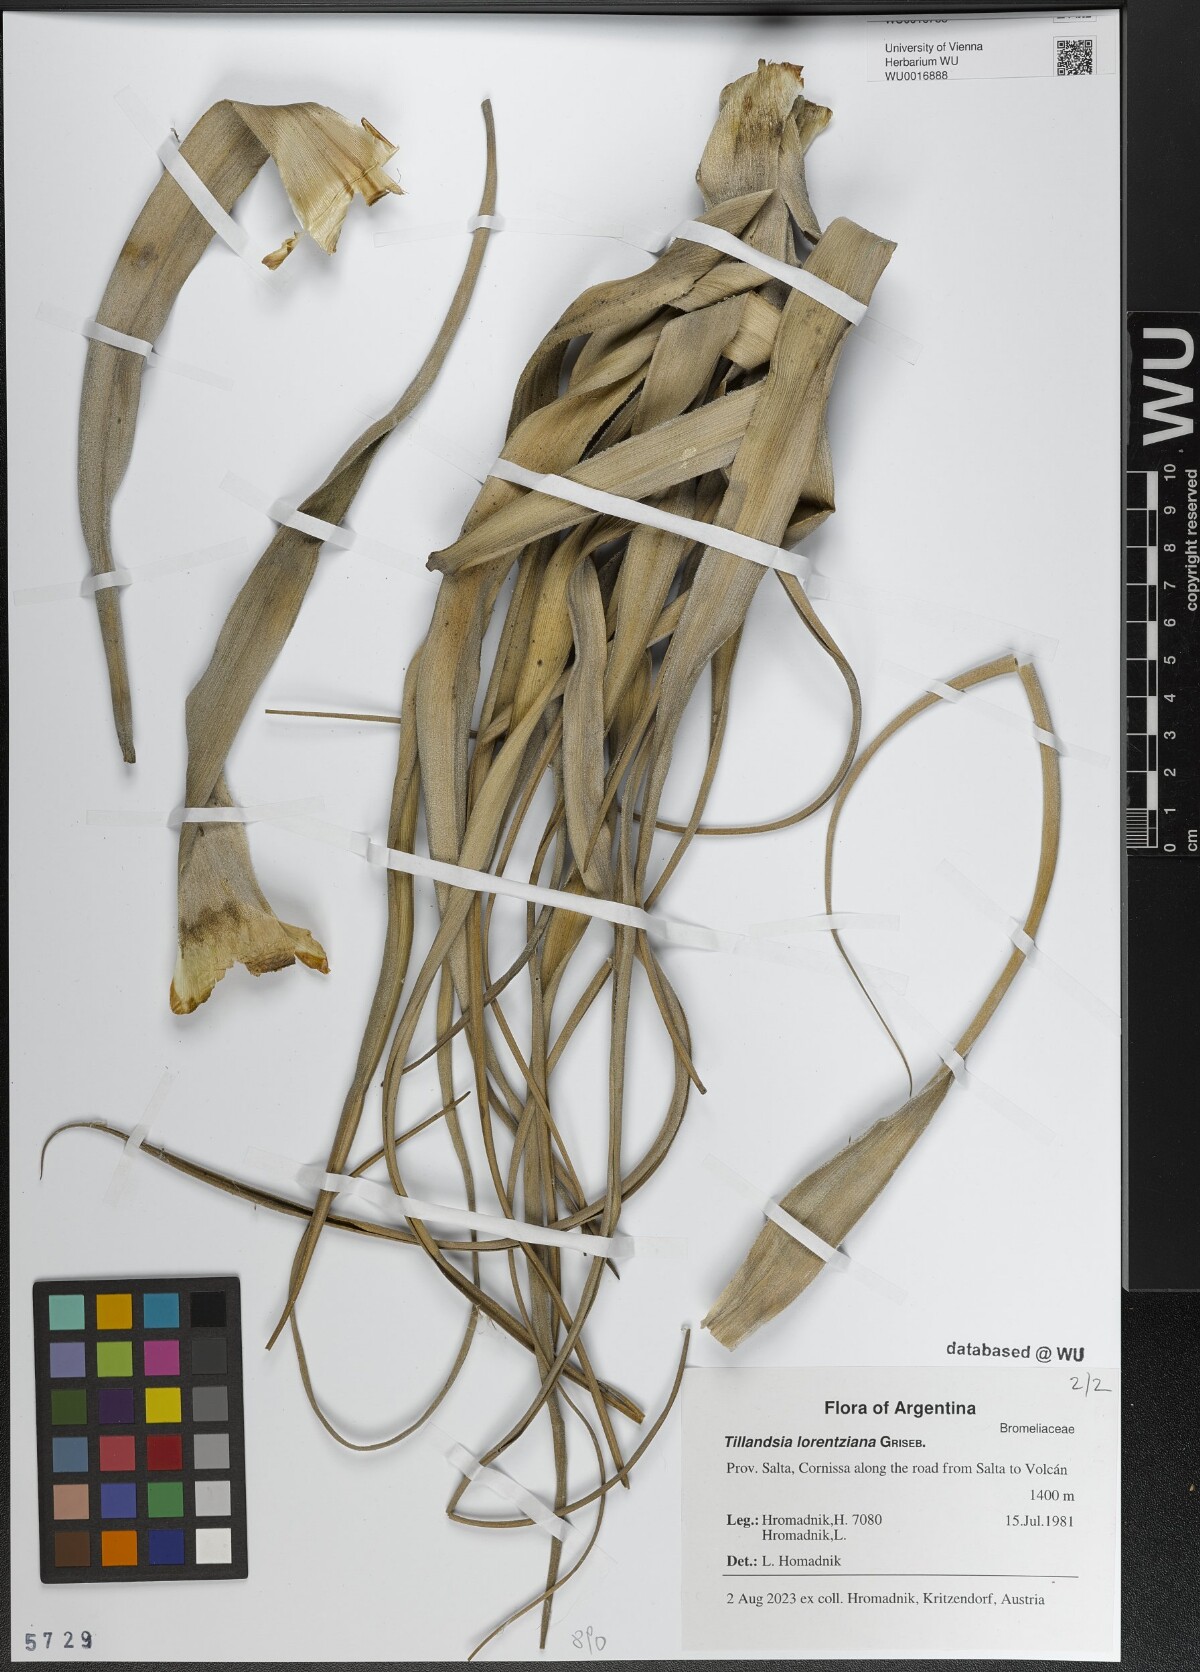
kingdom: Plantae
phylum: Tracheophyta
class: Liliopsida
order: Poales
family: Bromeliaceae
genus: Tillandsia
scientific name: Tillandsia lorentziana
